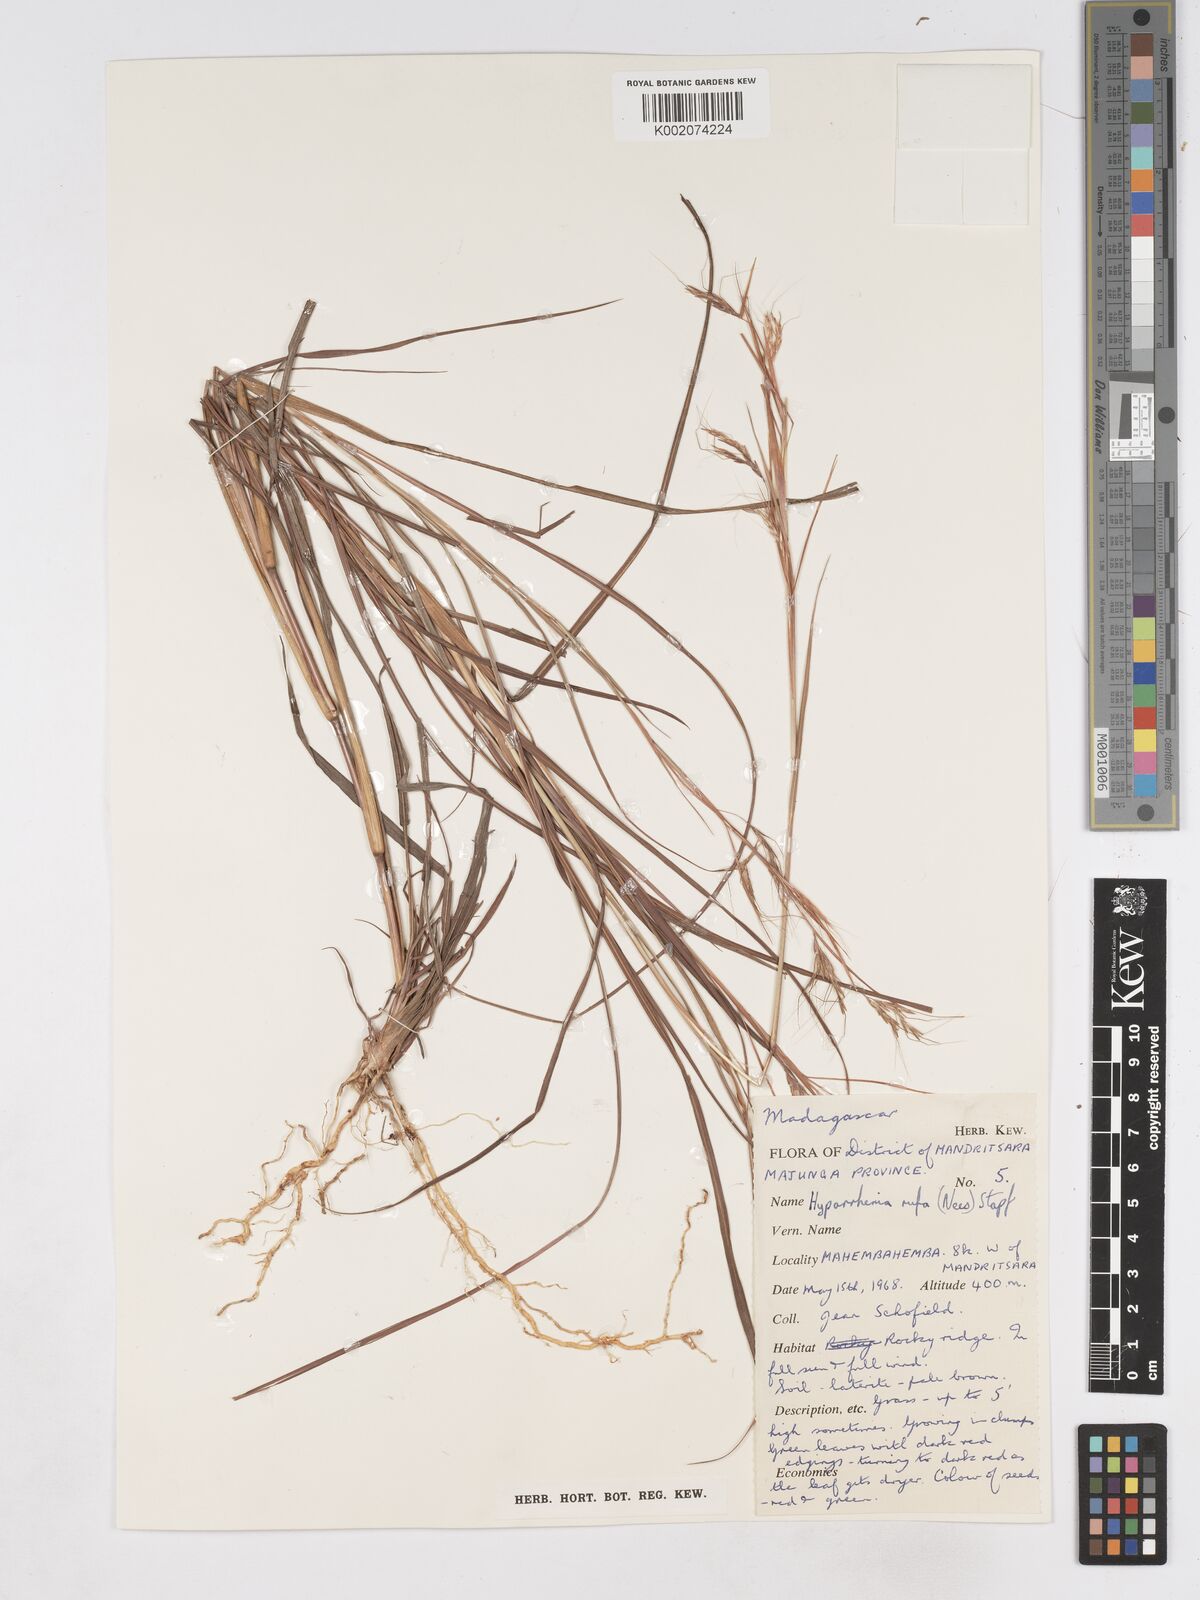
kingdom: Plantae
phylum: Tracheophyta
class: Liliopsida
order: Poales
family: Poaceae
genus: Hyparrhenia
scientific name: Hyparrhenia rufa
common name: Jaraguagrass
